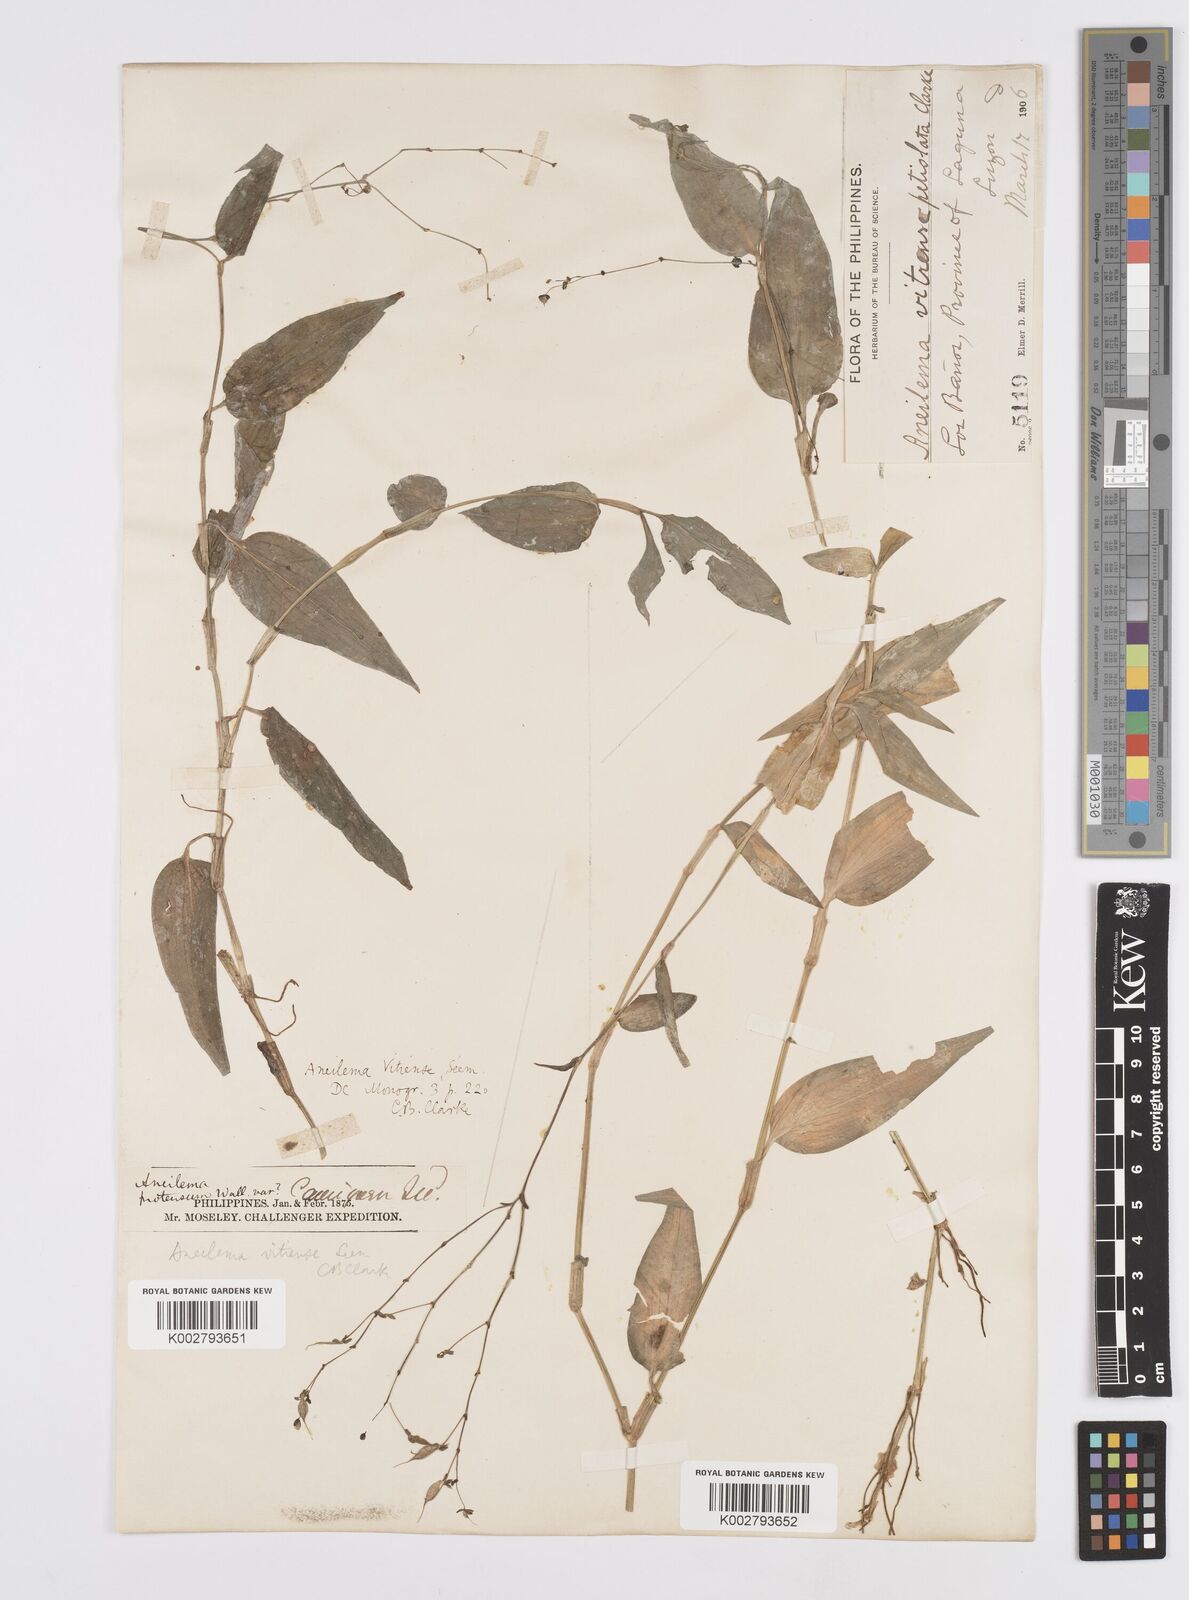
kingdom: Plantae
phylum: Tracheophyta
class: Liliopsida
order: Commelinales
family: Commelinaceae
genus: Murdannia
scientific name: Murdannia
